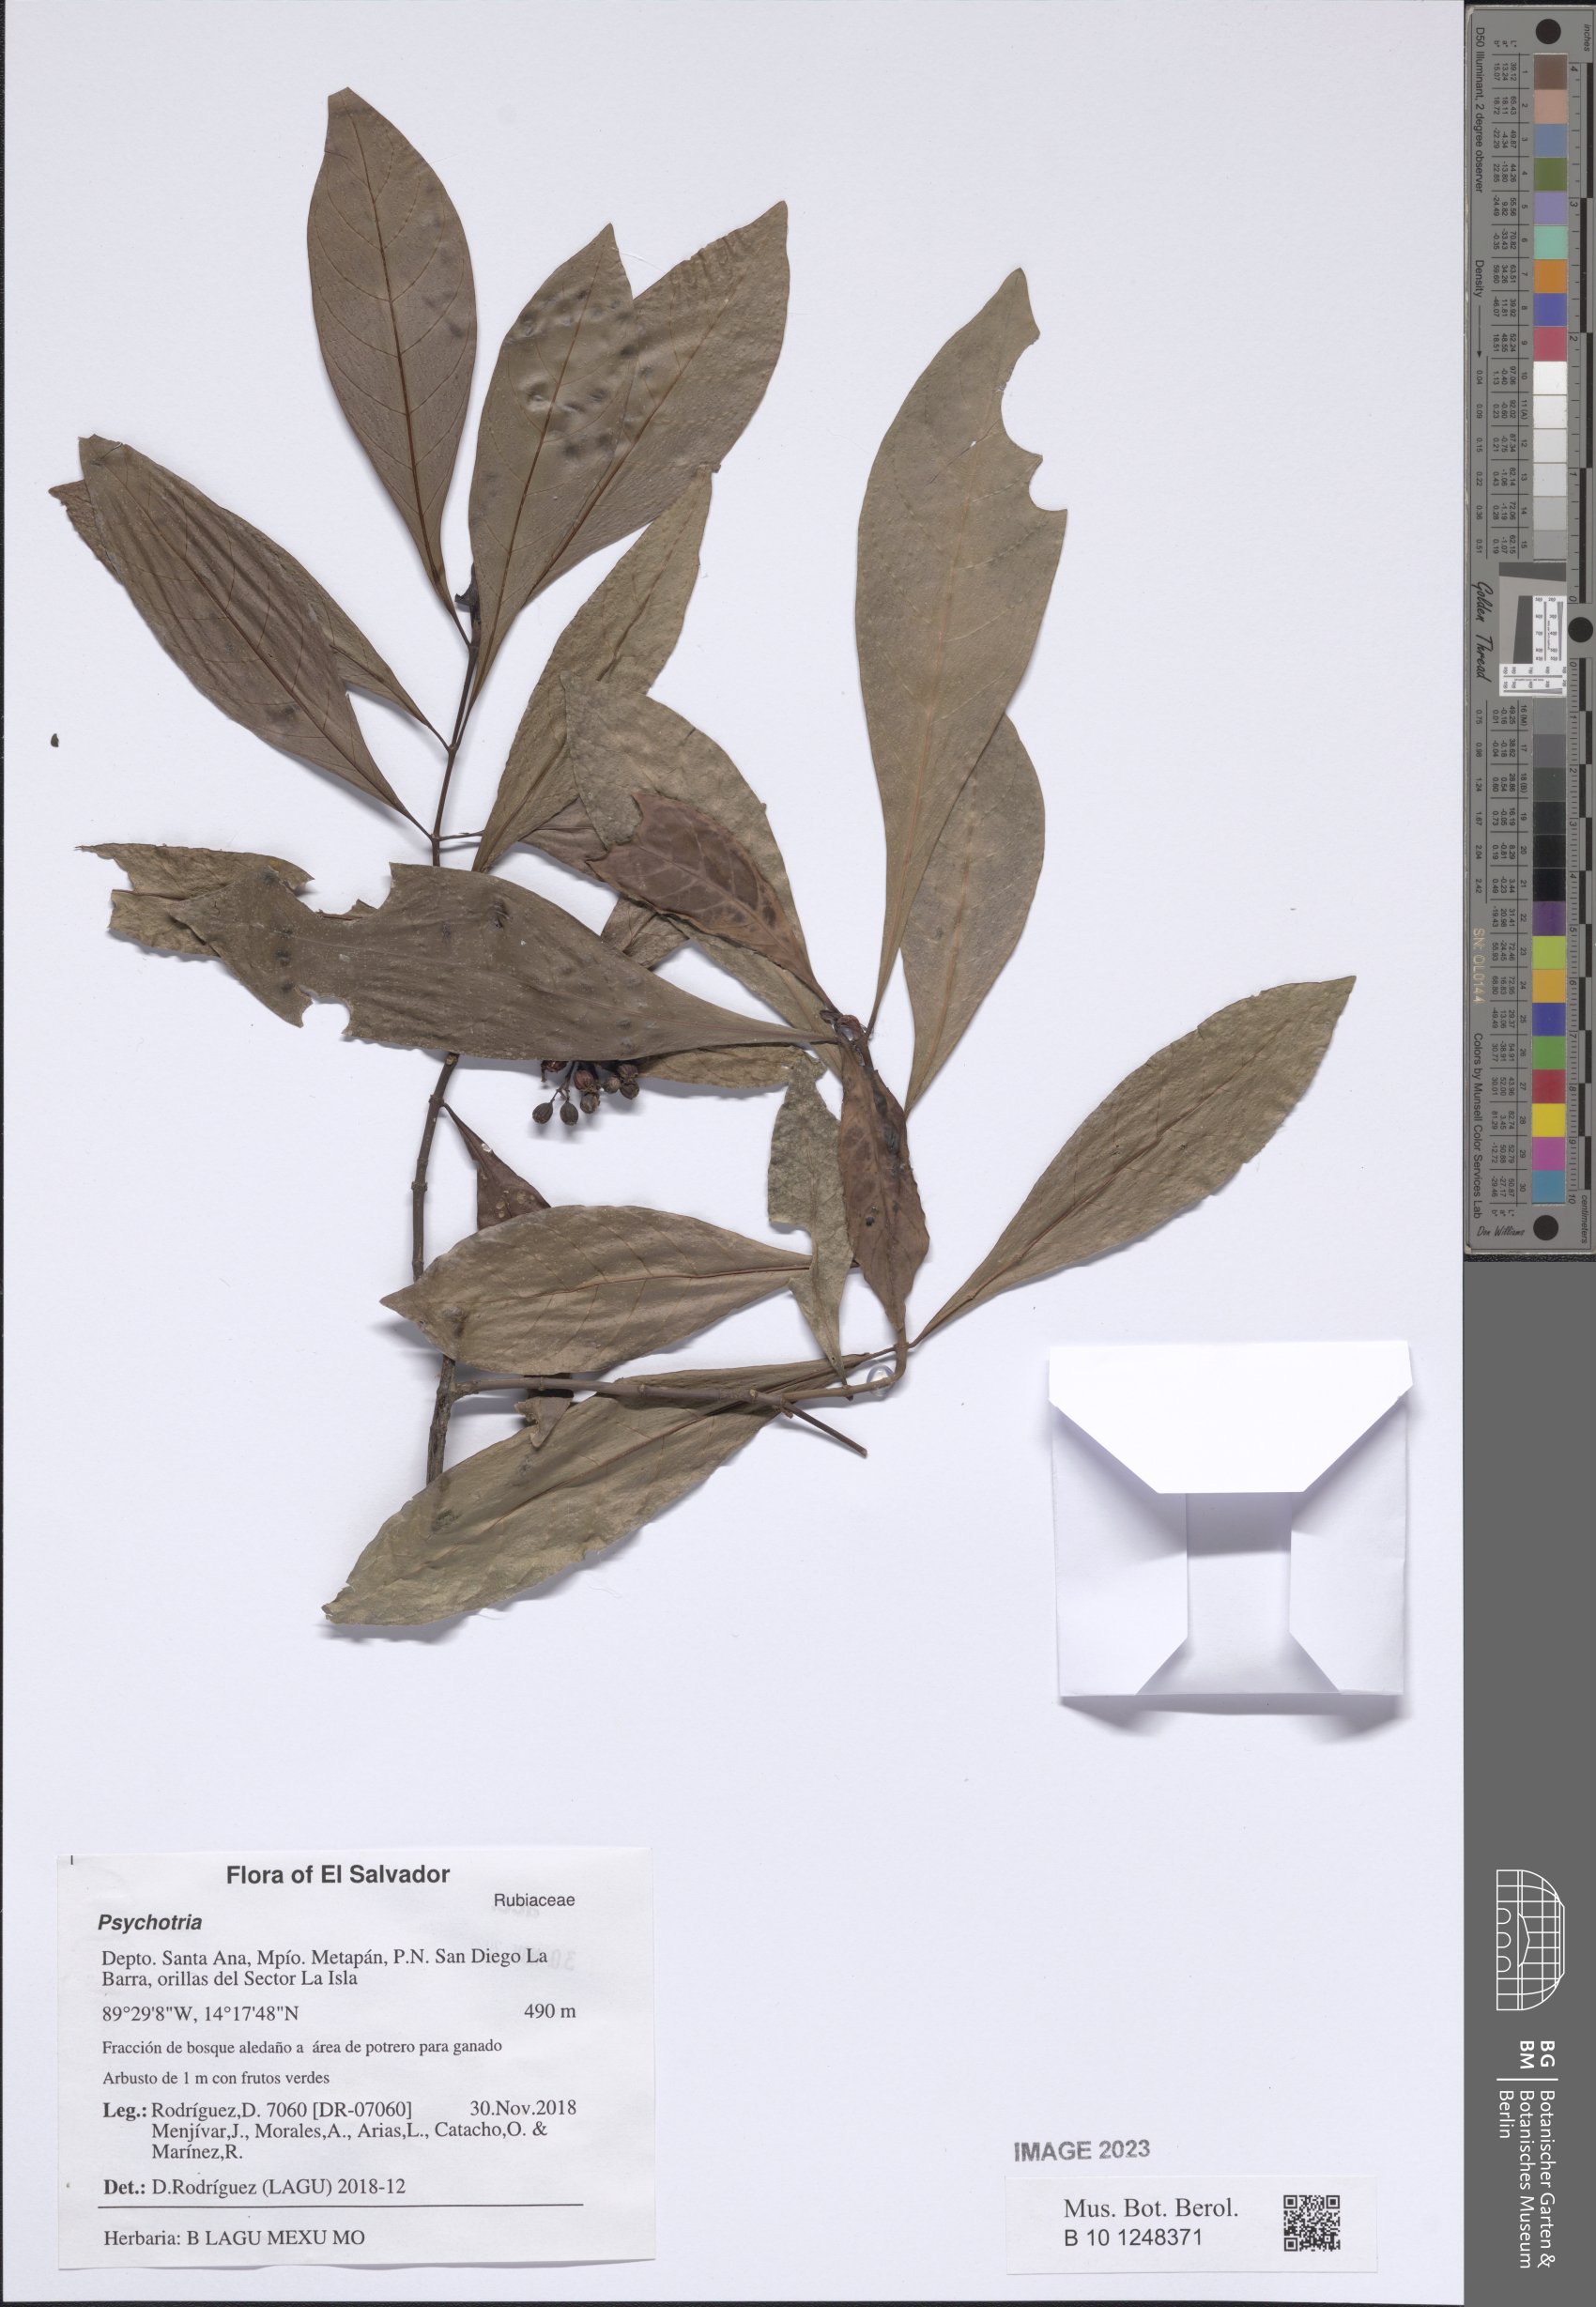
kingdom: Plantae
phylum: Tracheophyta
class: Magnoliopsida
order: Gentianales
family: Rubiaceae
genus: Psychotria
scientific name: Psychotria
